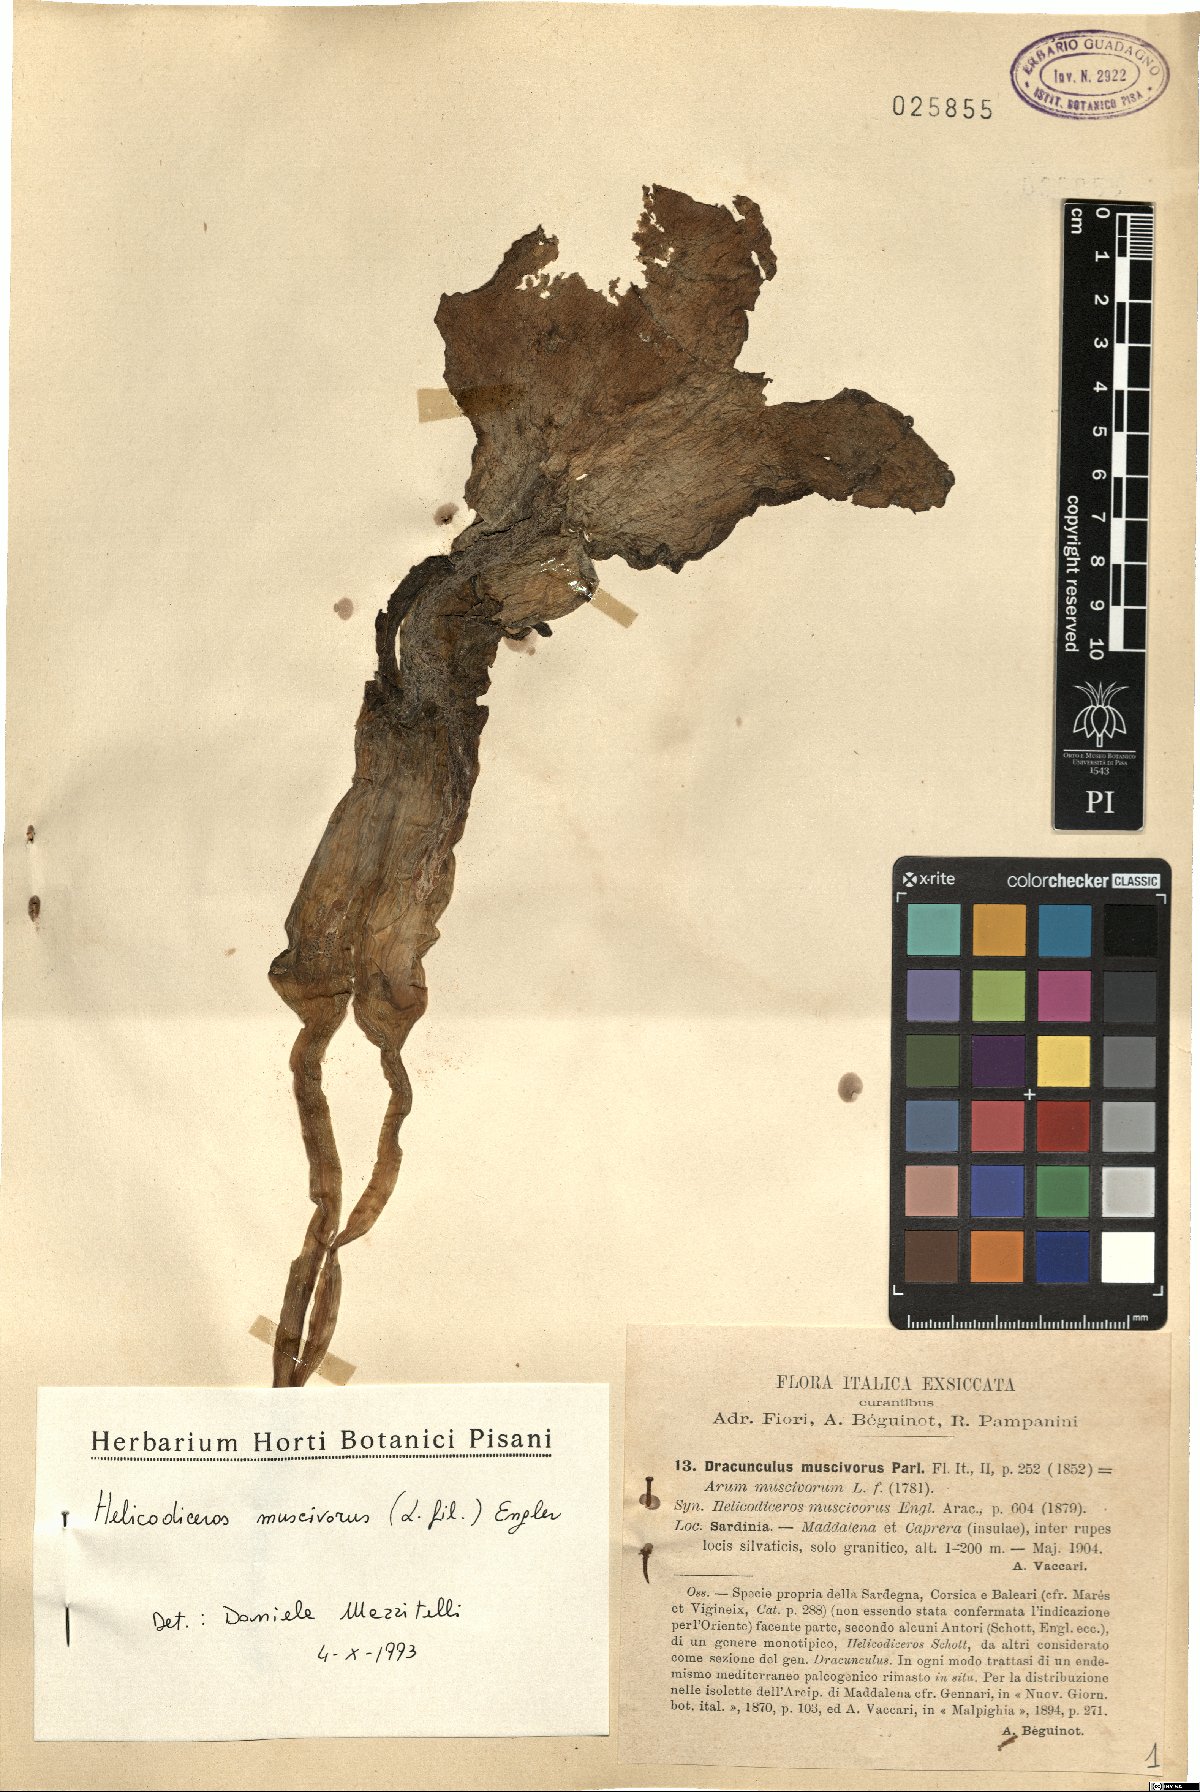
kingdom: Plantae
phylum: Tracheophyta
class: Liliopsida
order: Alismatales
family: Araceae
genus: Helicodiceros
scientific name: Helicodiceros muscivorus
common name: Snakeroot
